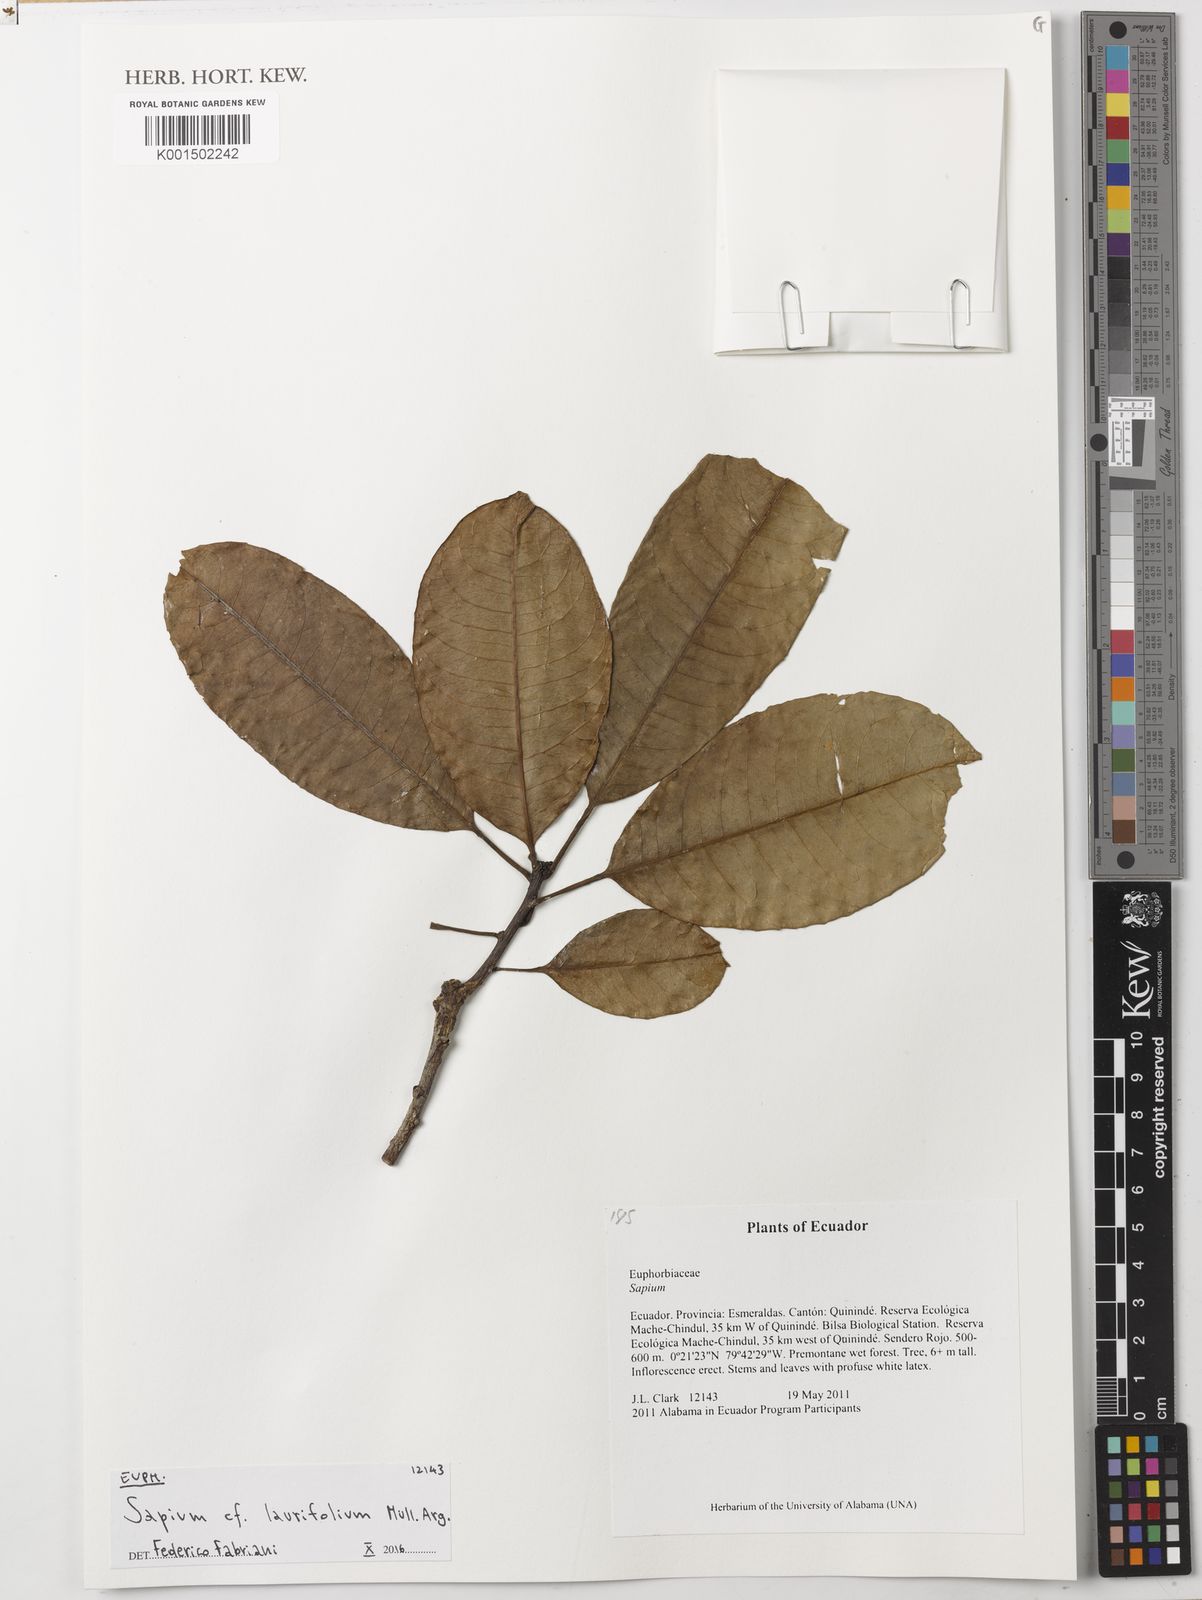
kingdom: Plantae
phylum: Tracheophyta
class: Magnoliopsida
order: Malpighiales
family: Euphorbiaceae
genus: Sapium
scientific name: Sapium laurifolium
